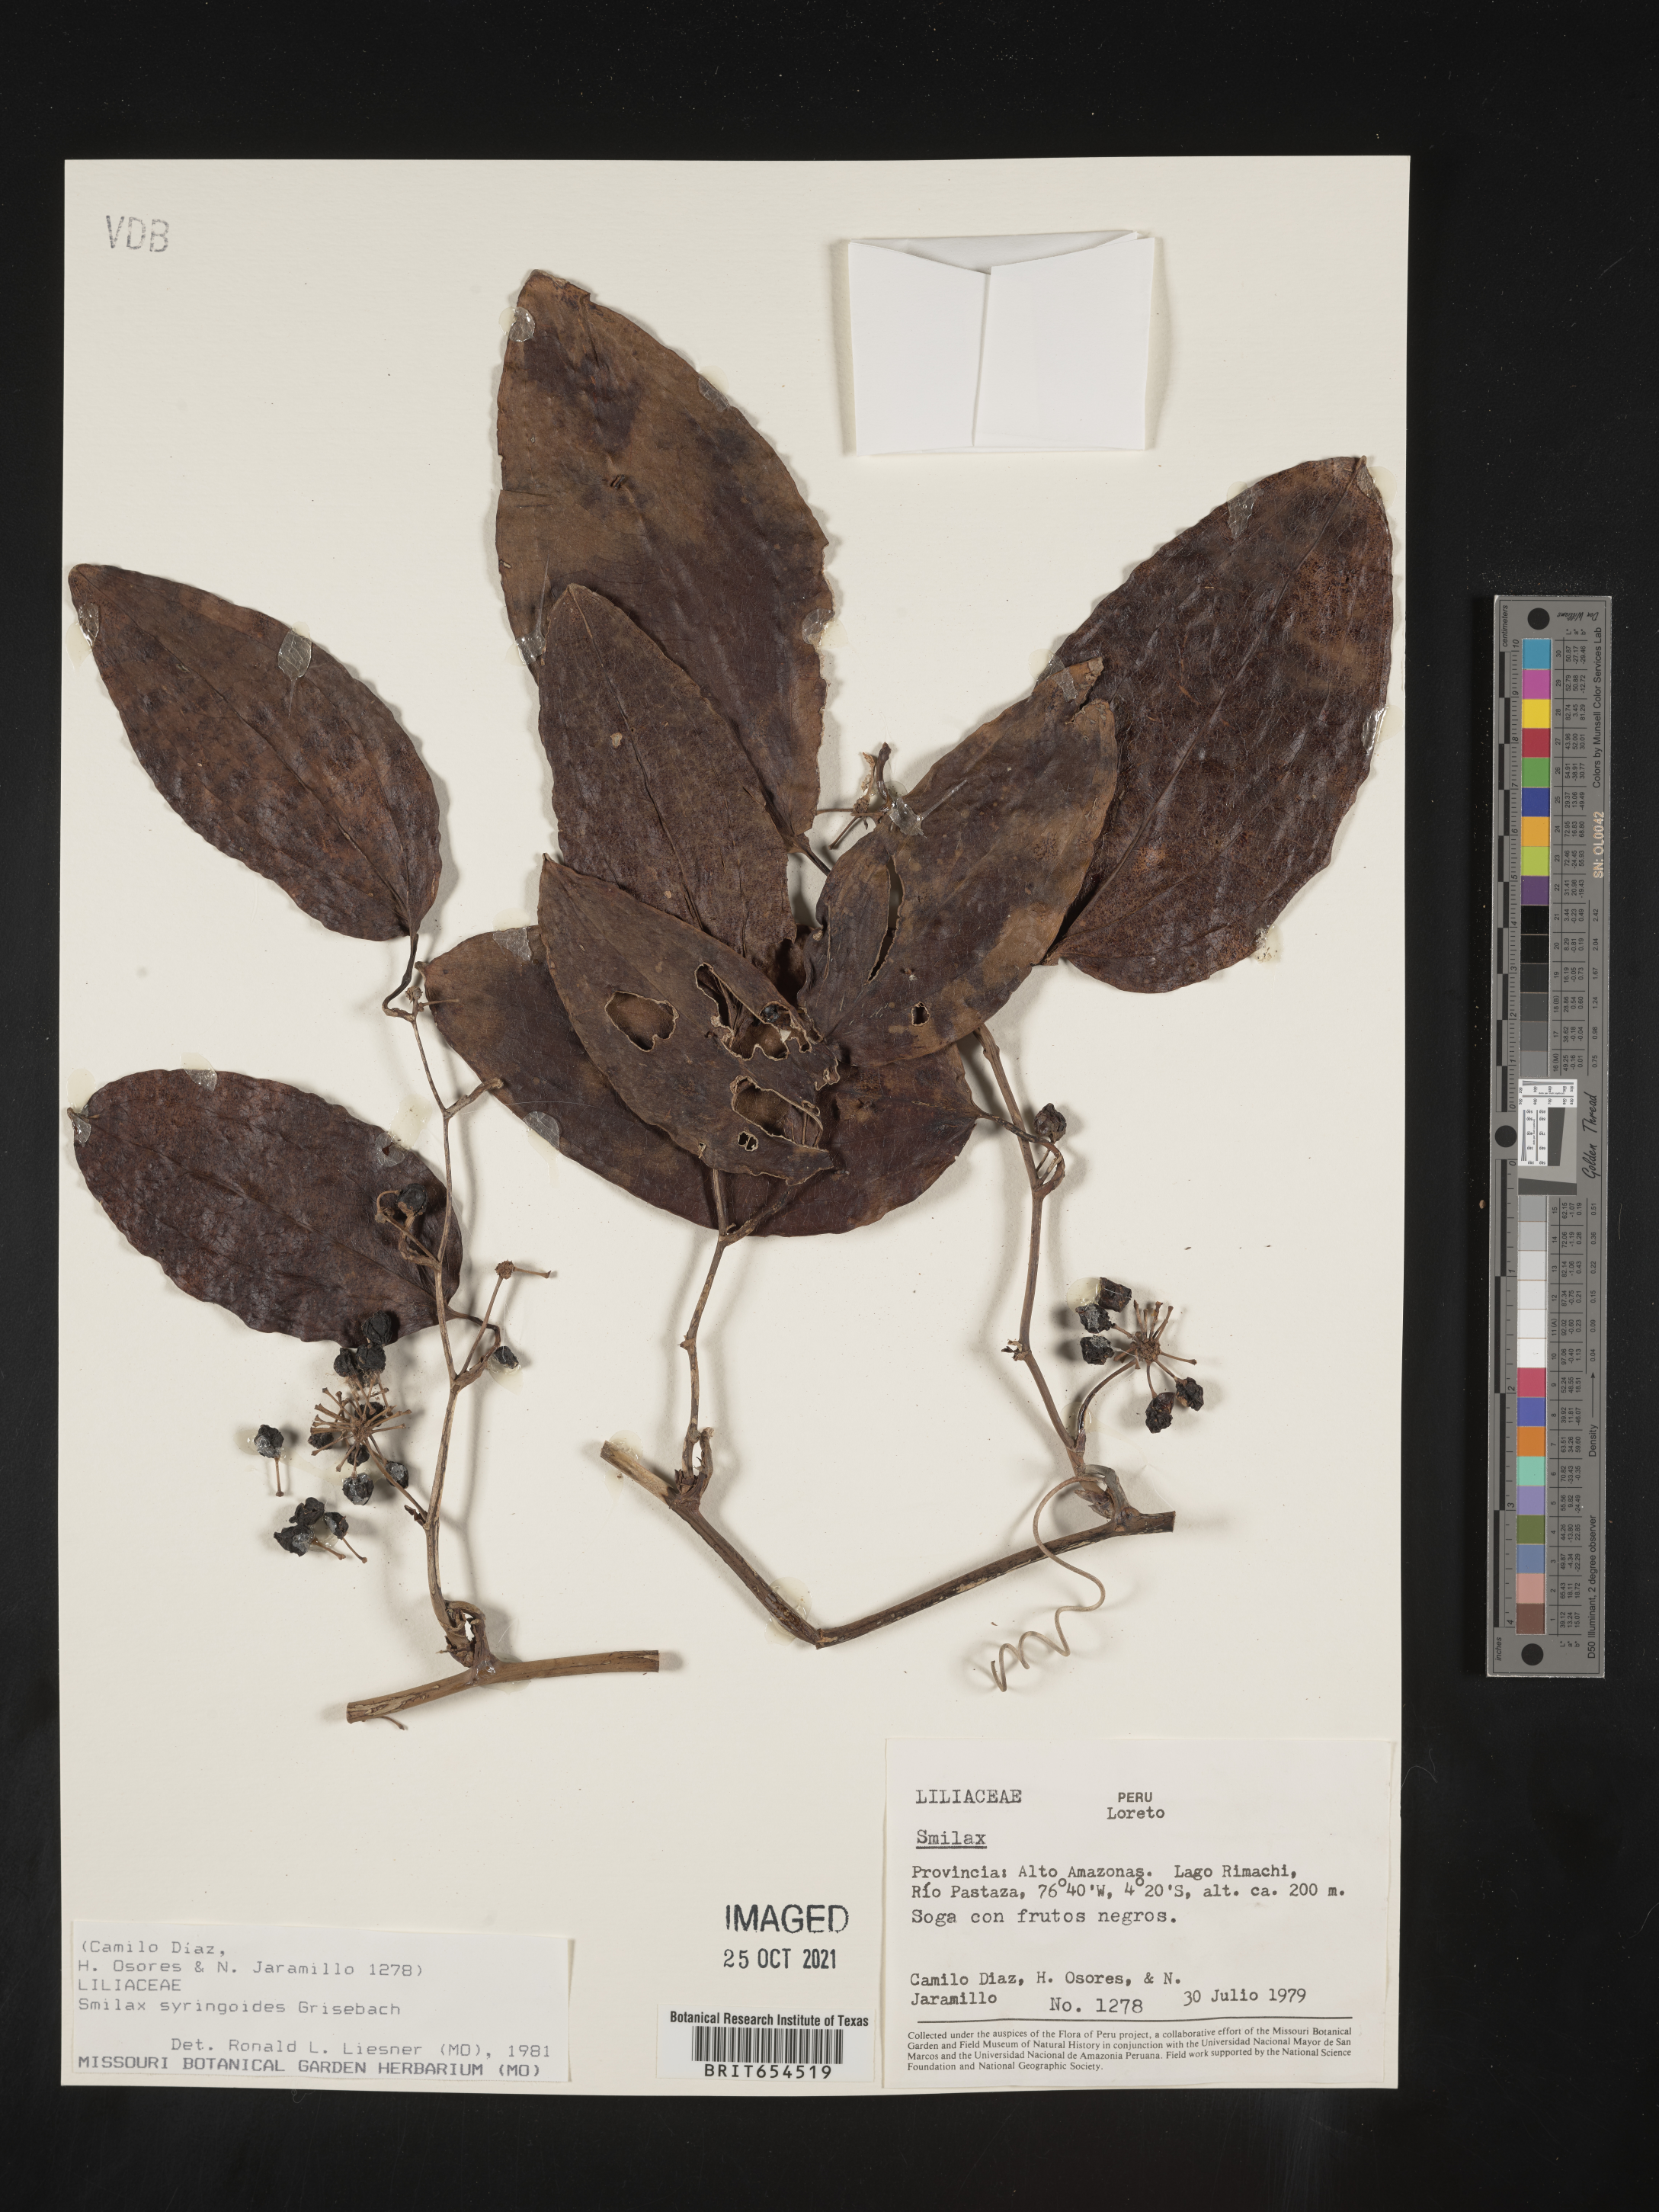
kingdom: Plantae
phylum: Tracheophyta
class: Liliopsida
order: Liliales
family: Smilacaceae
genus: Smilax
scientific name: Smilax
